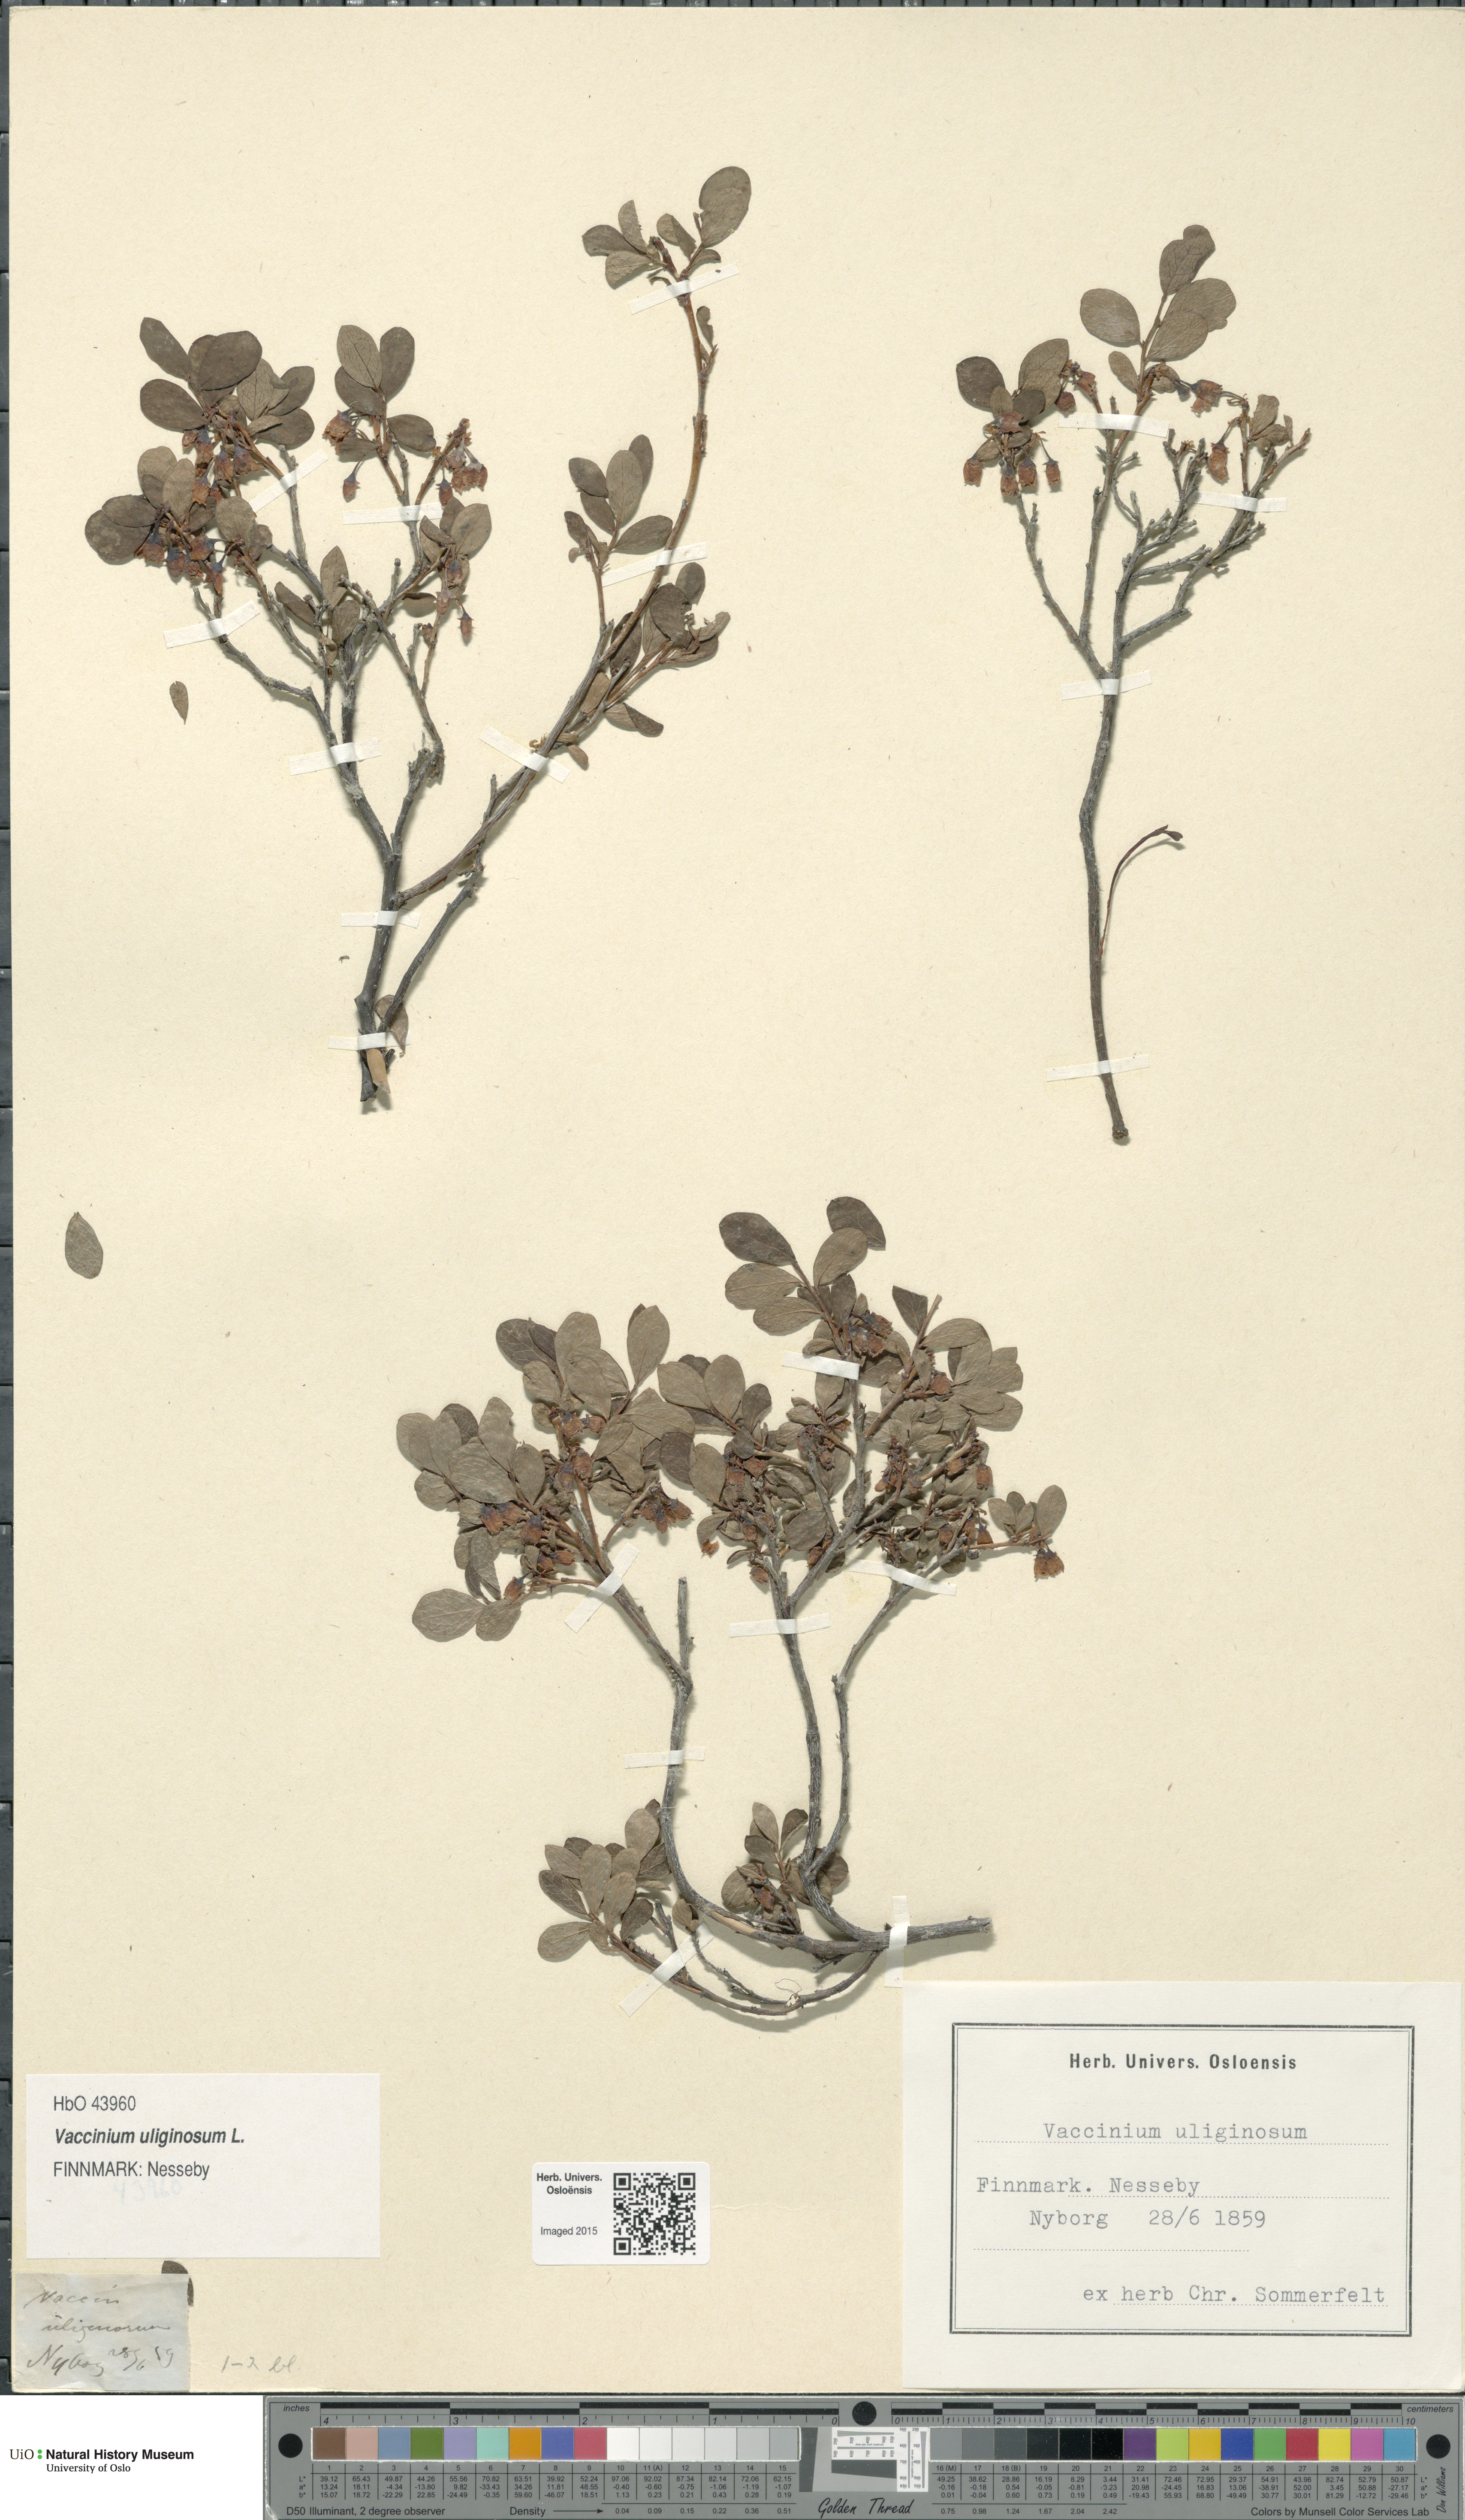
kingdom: Plantae
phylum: Tracheophyta
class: Magnoliopsida
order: Ericales
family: Ericaceae
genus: Vaccinium
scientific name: Vaccinium uliginosum
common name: Bog bilberry
